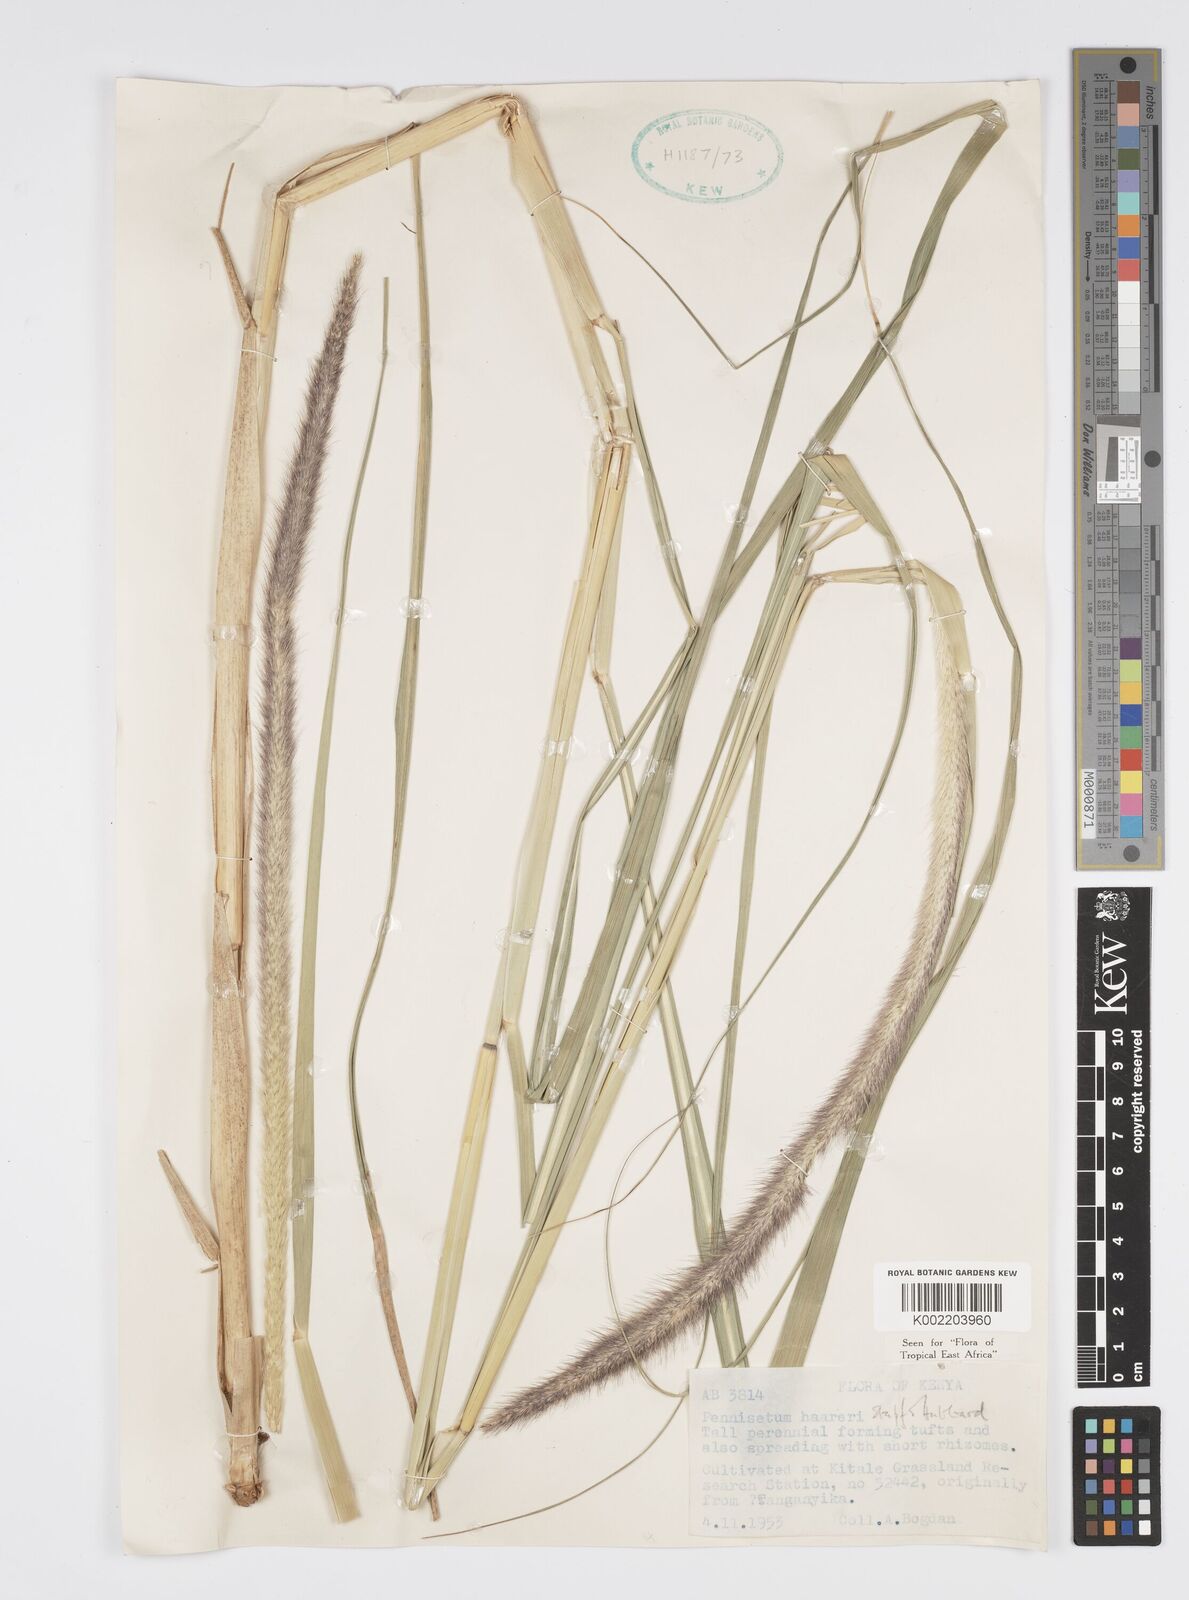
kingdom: Plantae
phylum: Tracheophyta
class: Liliopsida
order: Poales
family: Poaceae
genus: Cenchrus
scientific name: Cenchrus caudatus
